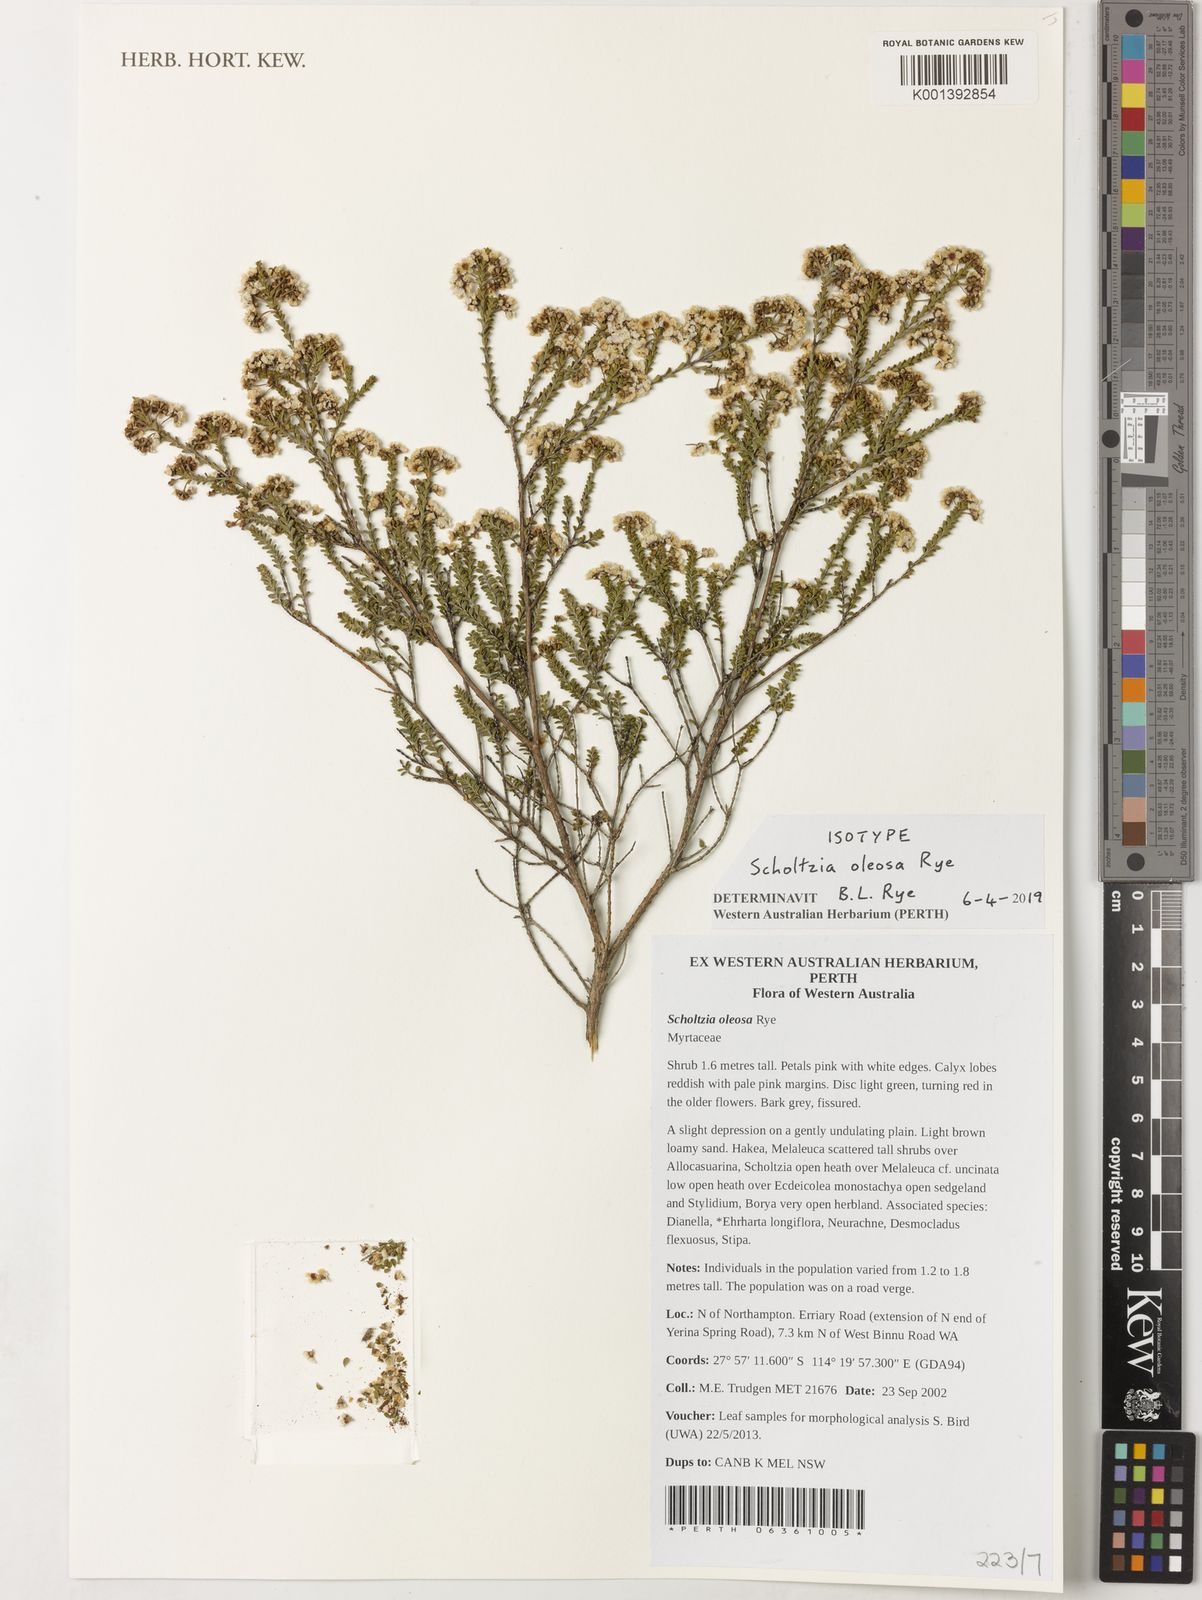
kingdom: Plantae
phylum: Tracheophyta
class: Magnoliopsida
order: Myrtales
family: Myrtaceae
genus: Scholtzia
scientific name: Scholtzia
